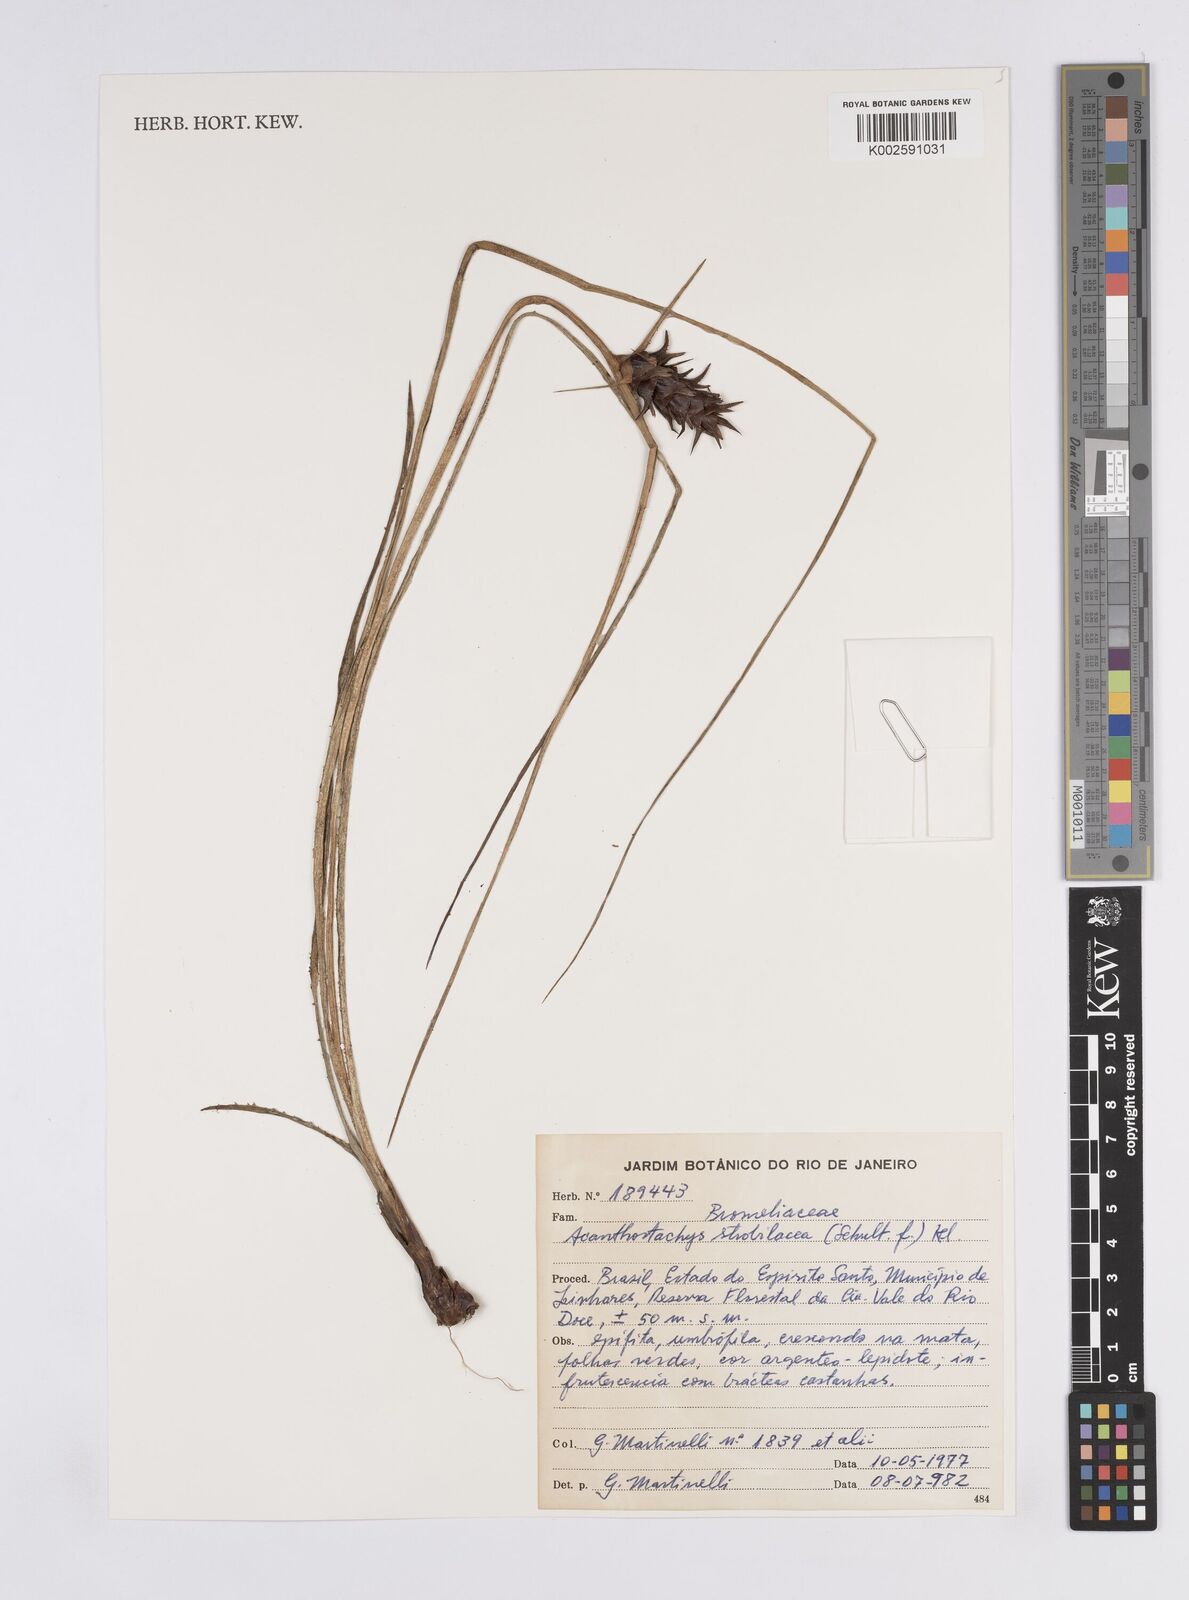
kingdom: Plantae
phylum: Tracheophyta
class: Liliopsida
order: Poales
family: Bromeliaceae
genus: Acanthostachys
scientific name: Acanthostachys strobilacea
